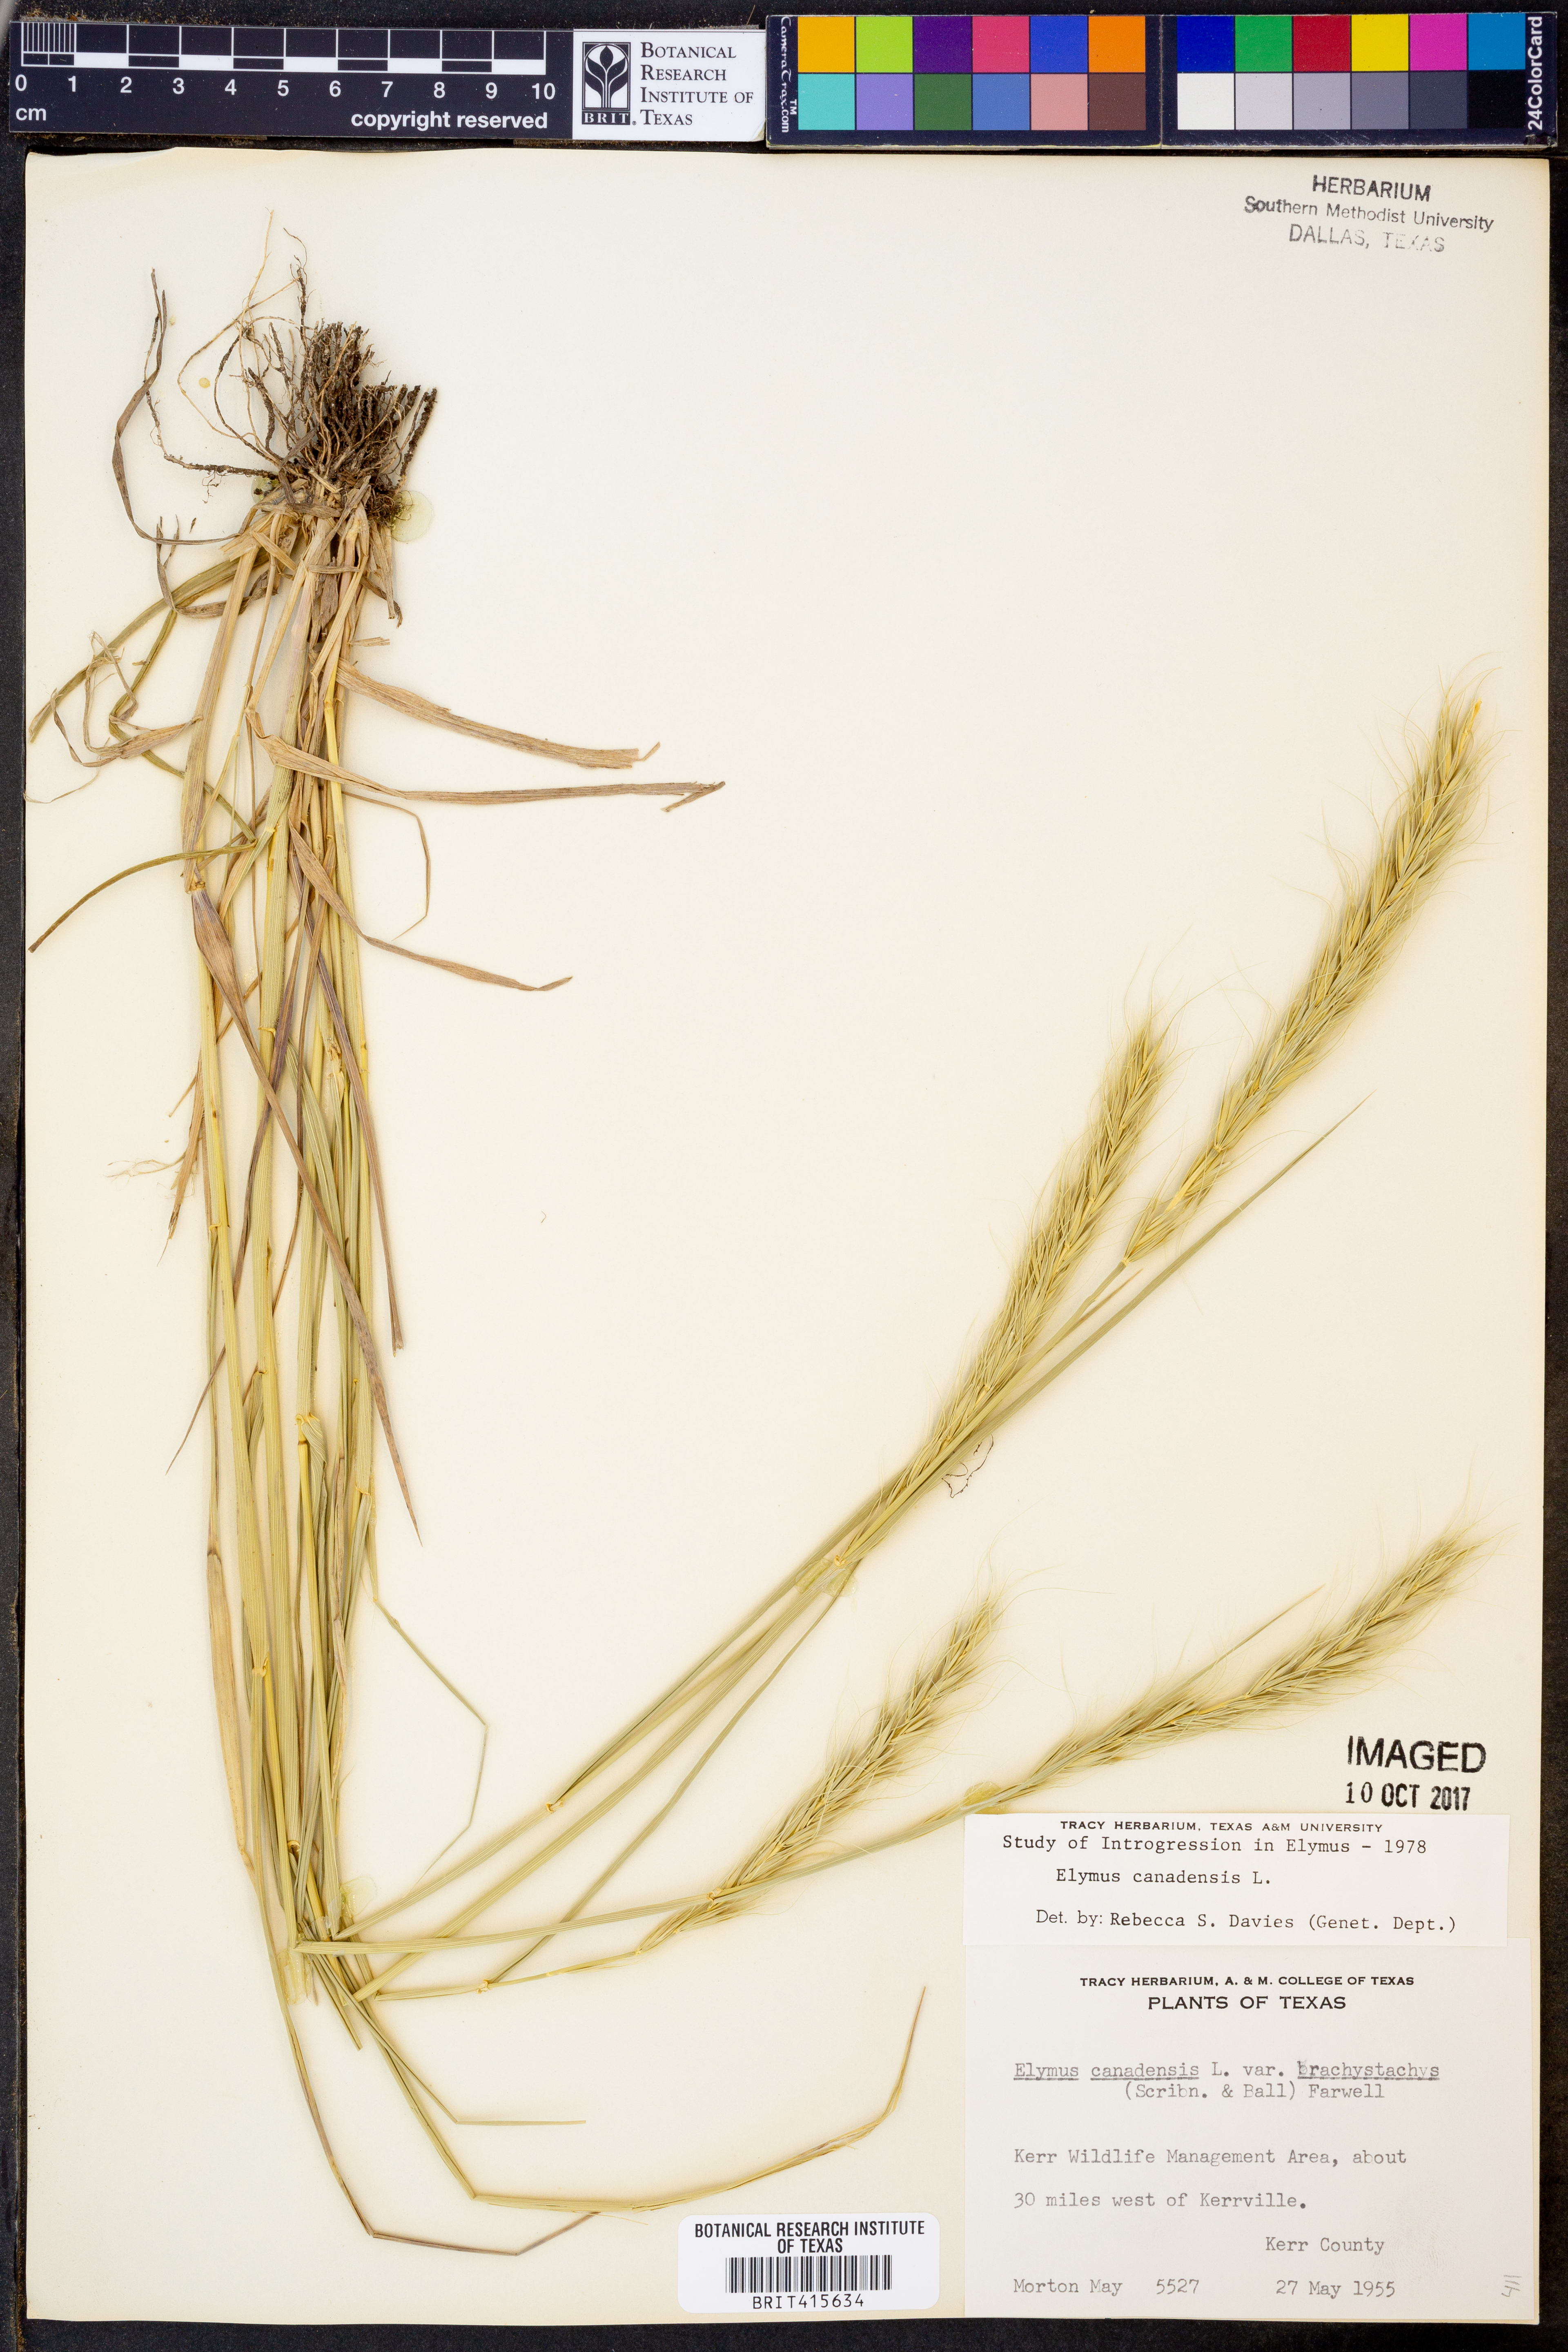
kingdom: Plantae
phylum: Tracheophyta
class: Liliopsida
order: Poales
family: Poaceae
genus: Elymus
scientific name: Elymus canadensis
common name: Canada wild rye
